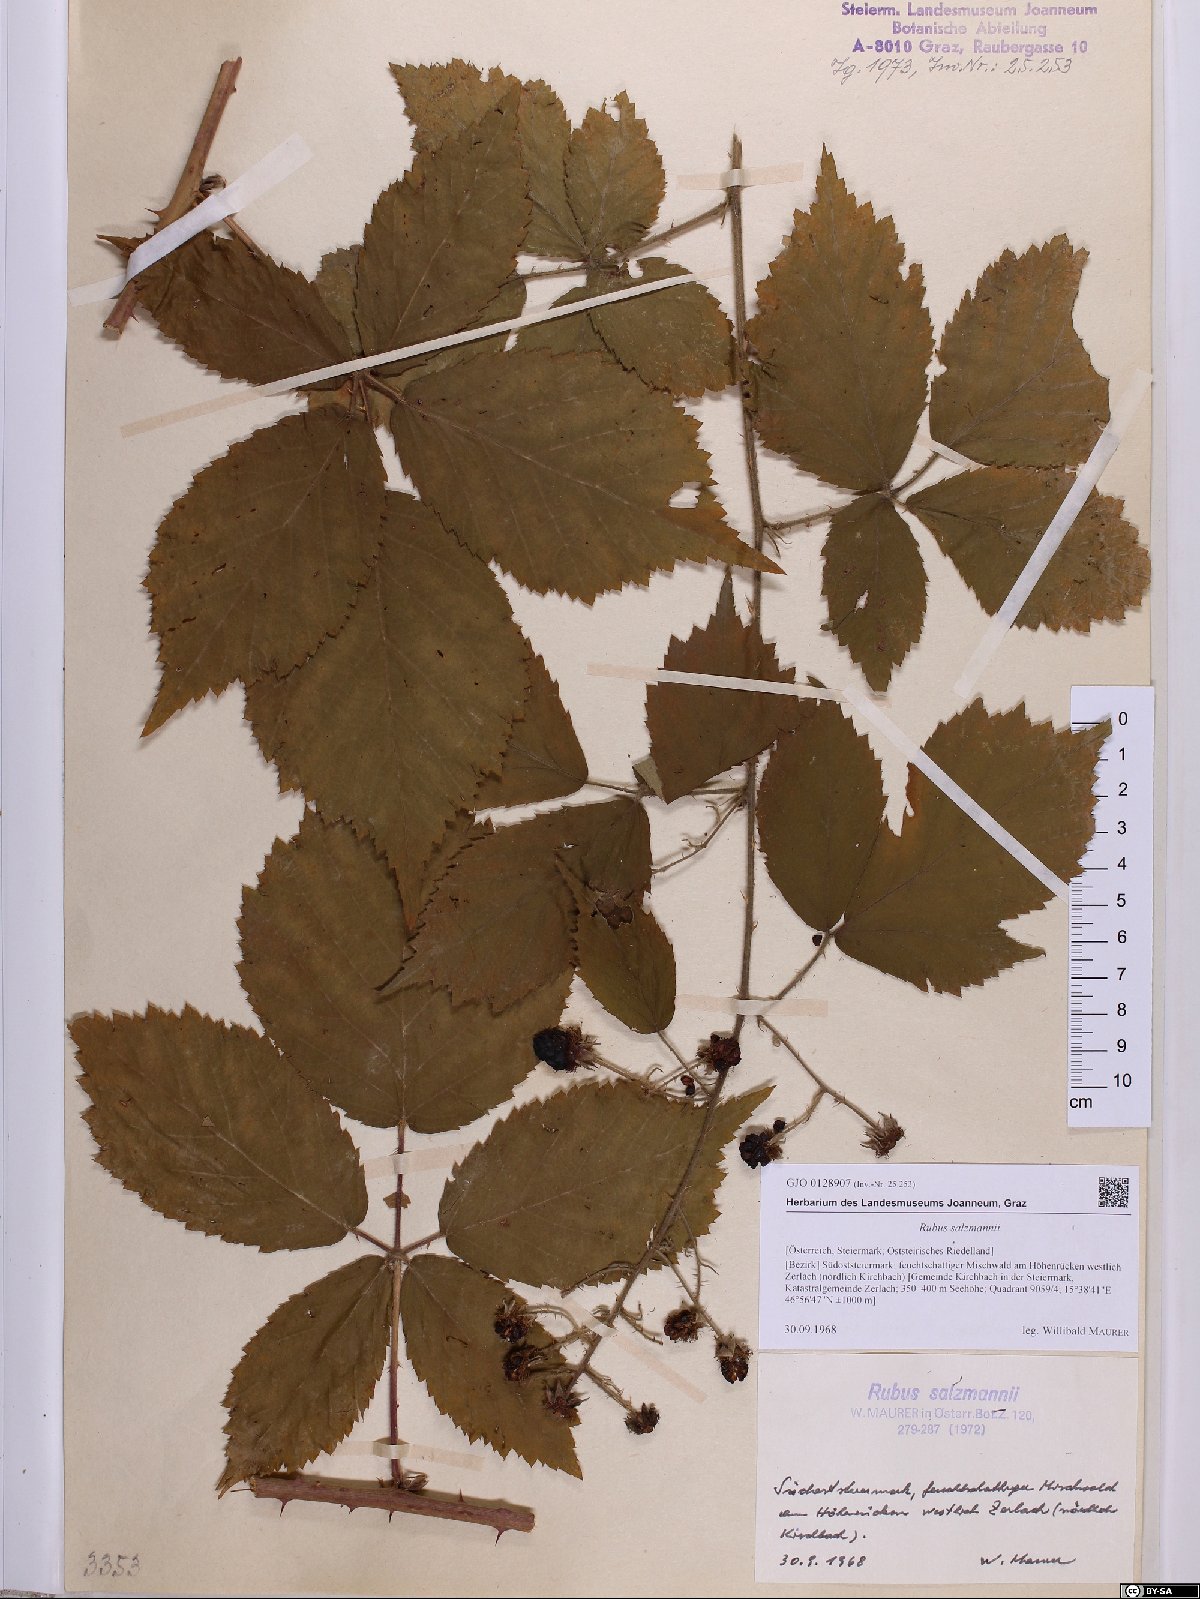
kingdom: Plantae
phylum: Tracheophyta
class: Magnoliopsida
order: Rosales
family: Rosaceae
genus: Rubus
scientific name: Rubus salzmannii
